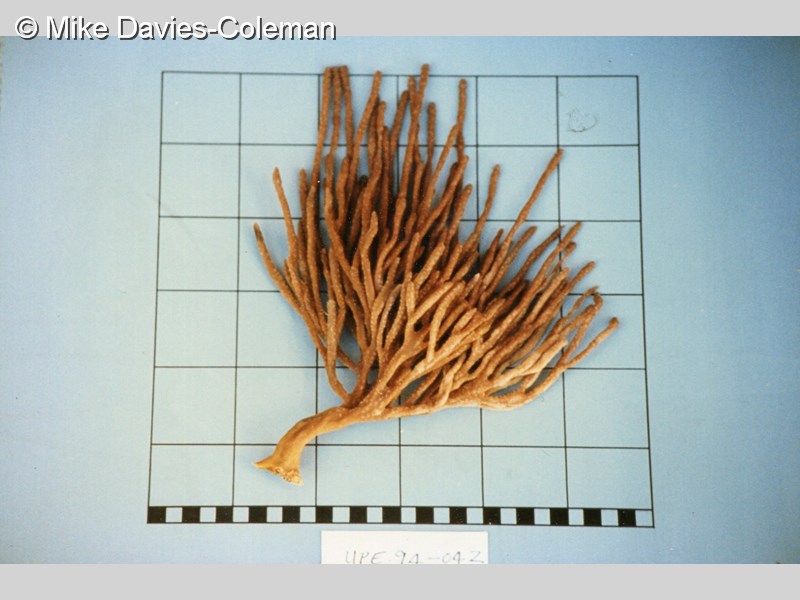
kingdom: Animalia
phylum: Porifera
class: Demospongiae
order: Poecilosclerida
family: Microcionidae
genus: Antho
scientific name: Antho
